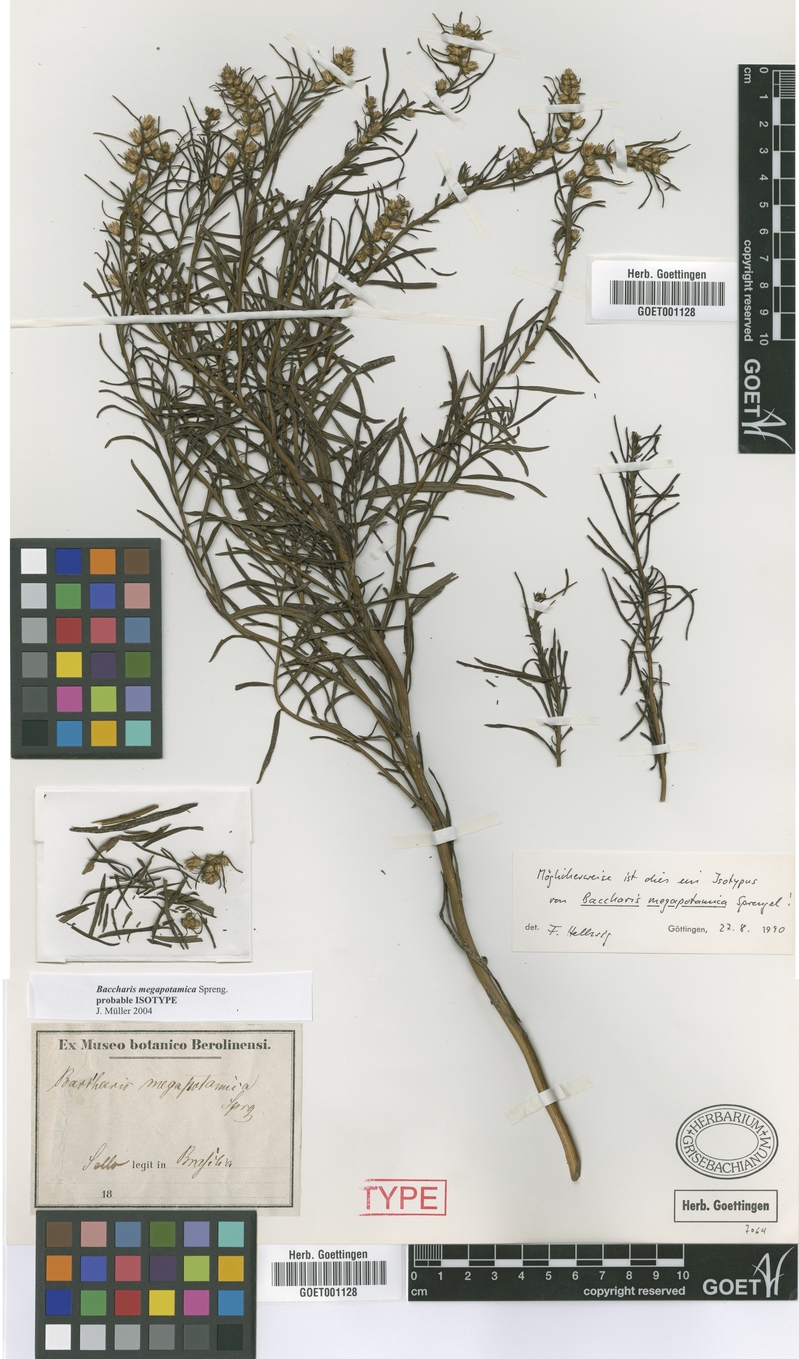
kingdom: Plantae
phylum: Tracheophyta
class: Magnoliopsida
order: Asterales
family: Asteraceae
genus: Baccharis
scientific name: Baccharis megapotamica
